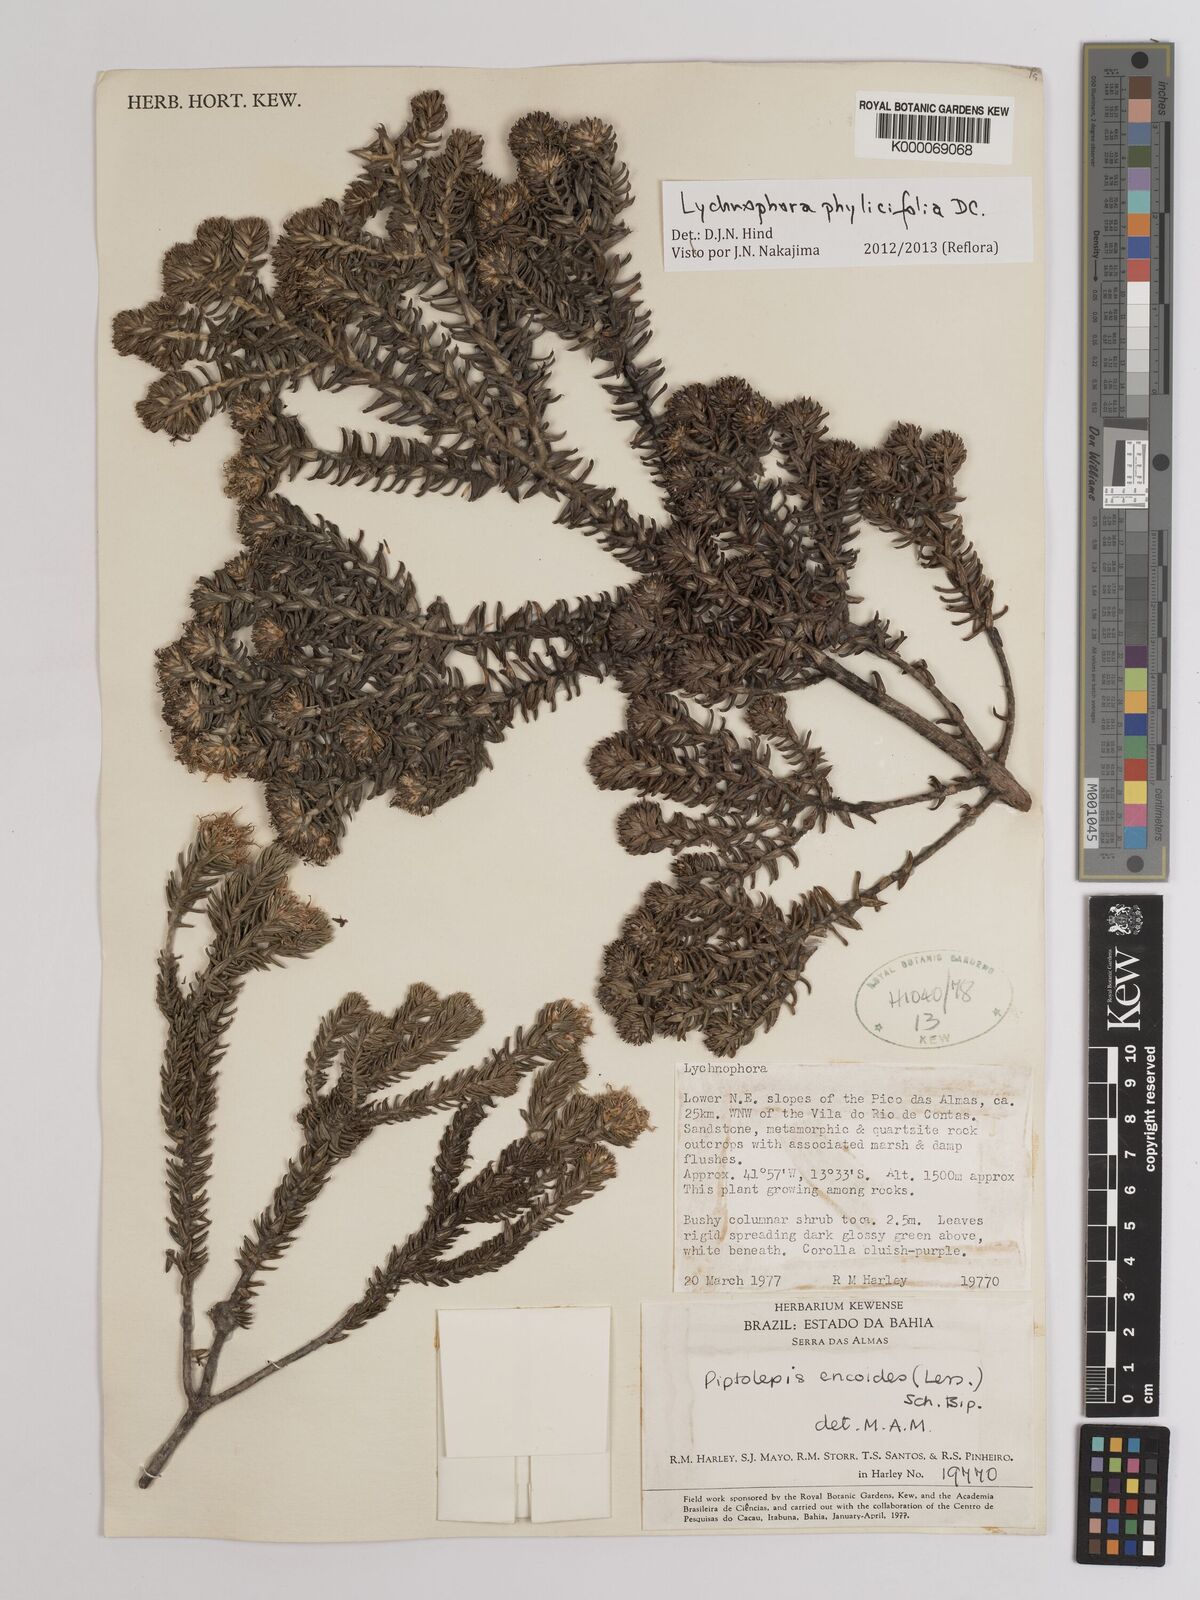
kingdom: Plantae
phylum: Tracheophyta
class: Magnoliopsida
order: Asterales
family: Asteraceae
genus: Lychnophora
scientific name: Lychnophora phylicifolia
